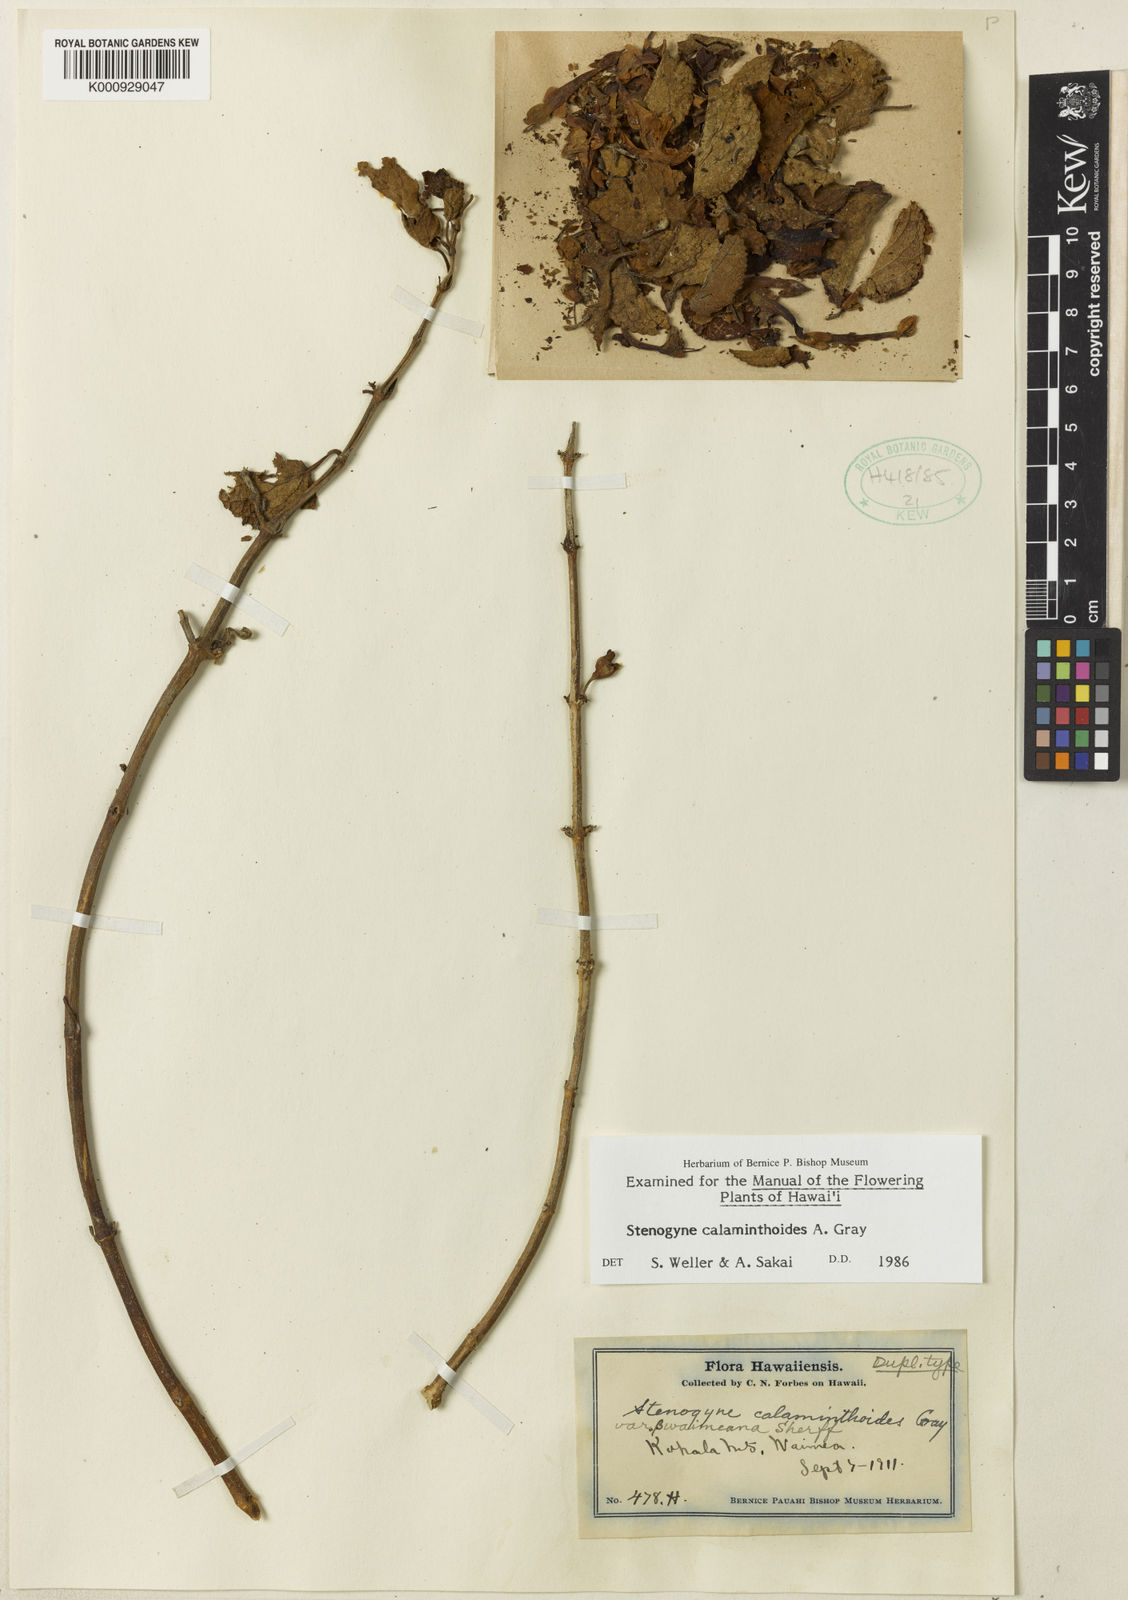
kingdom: Plantae
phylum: Tracheophyta
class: Magnoliopsida
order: Lamiales
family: Lamiaceae
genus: Stenogyne
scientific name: Stenogyne calaminthoides
